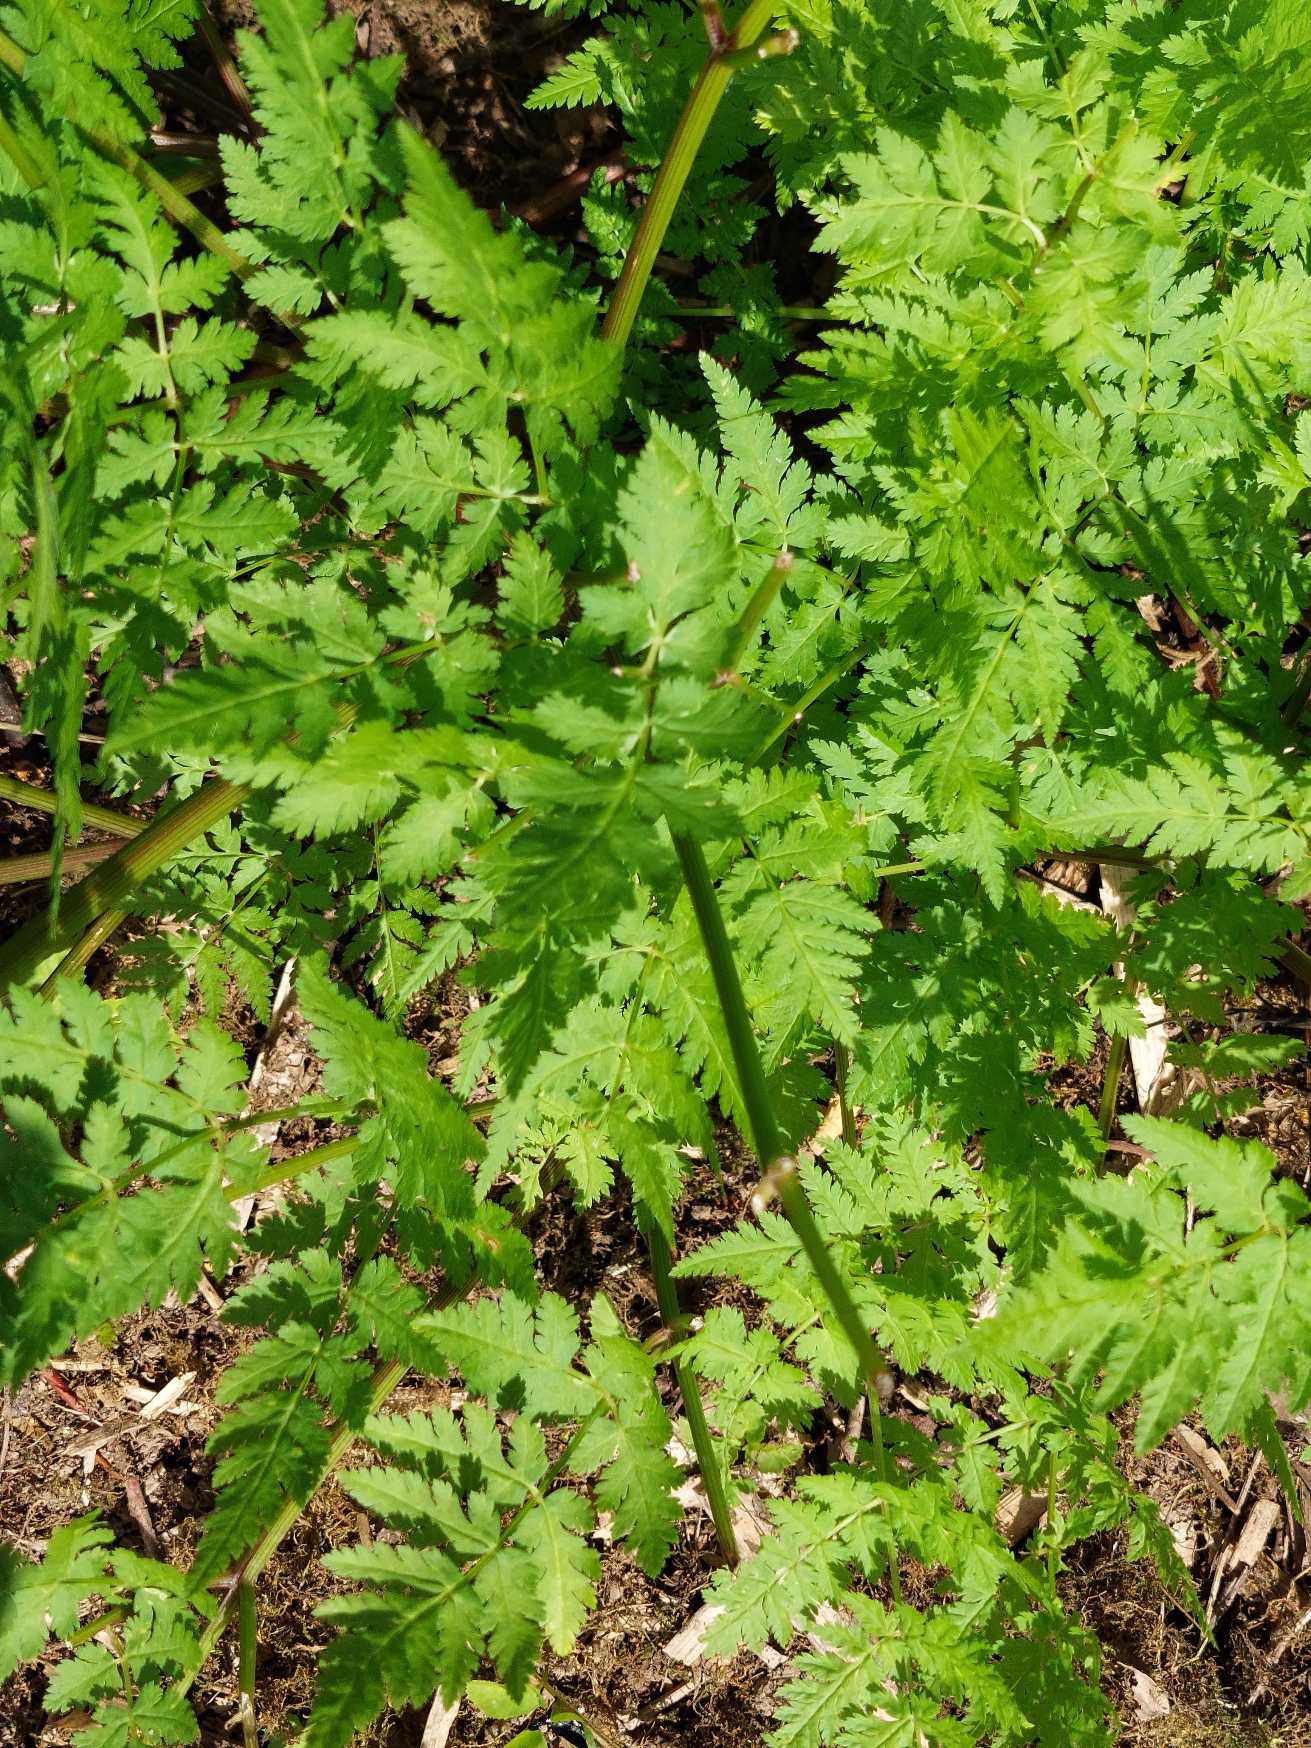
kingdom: Plantae
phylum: Tracheophyta
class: Magnoliopsida
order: Apiales
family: Apiaceae
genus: Myrrhis
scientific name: Myrrhis odorata
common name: Sødskærm
